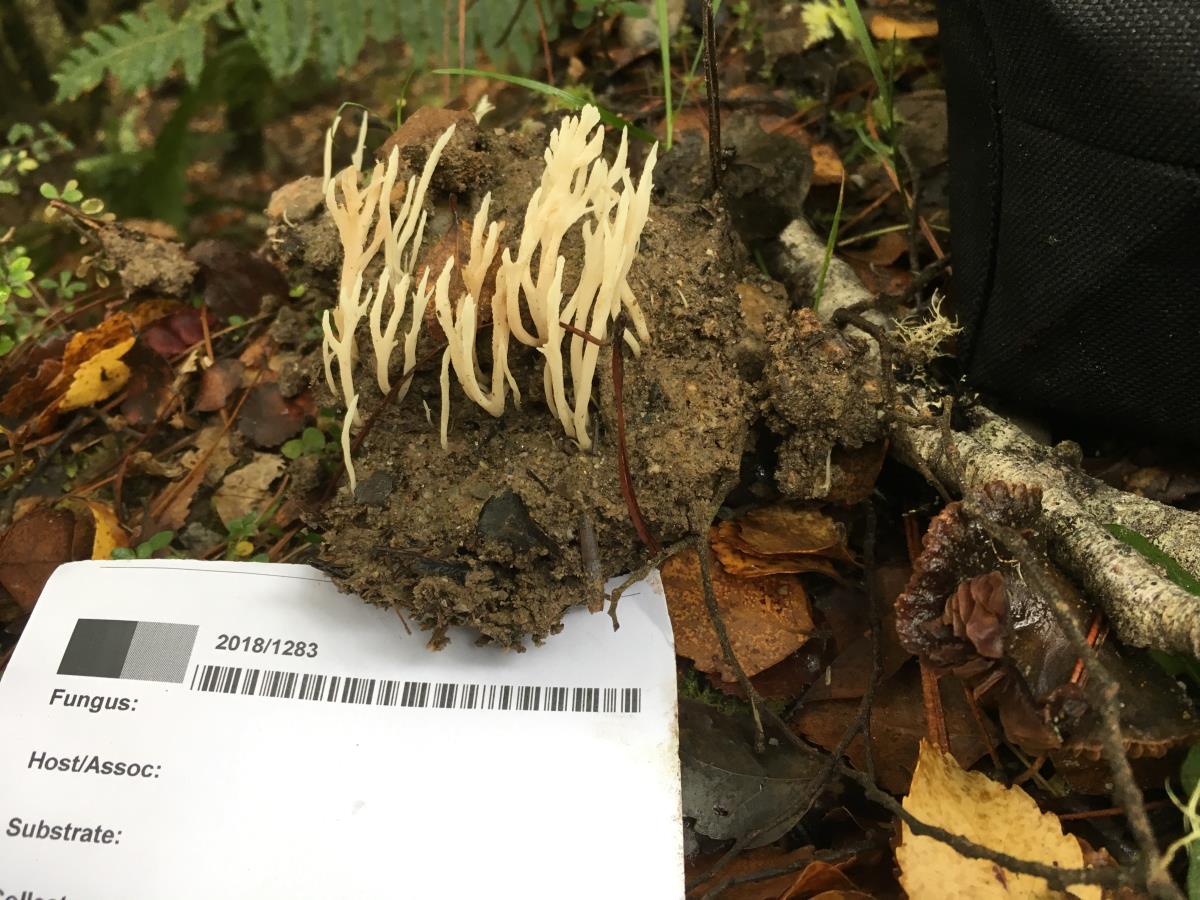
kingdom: Fungi
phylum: Basidiomycota
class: Agaricomycetes
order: Cantharellales
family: Hydnaceae
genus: Clavulina
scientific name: Clavulina coralloides
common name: Crested coral
